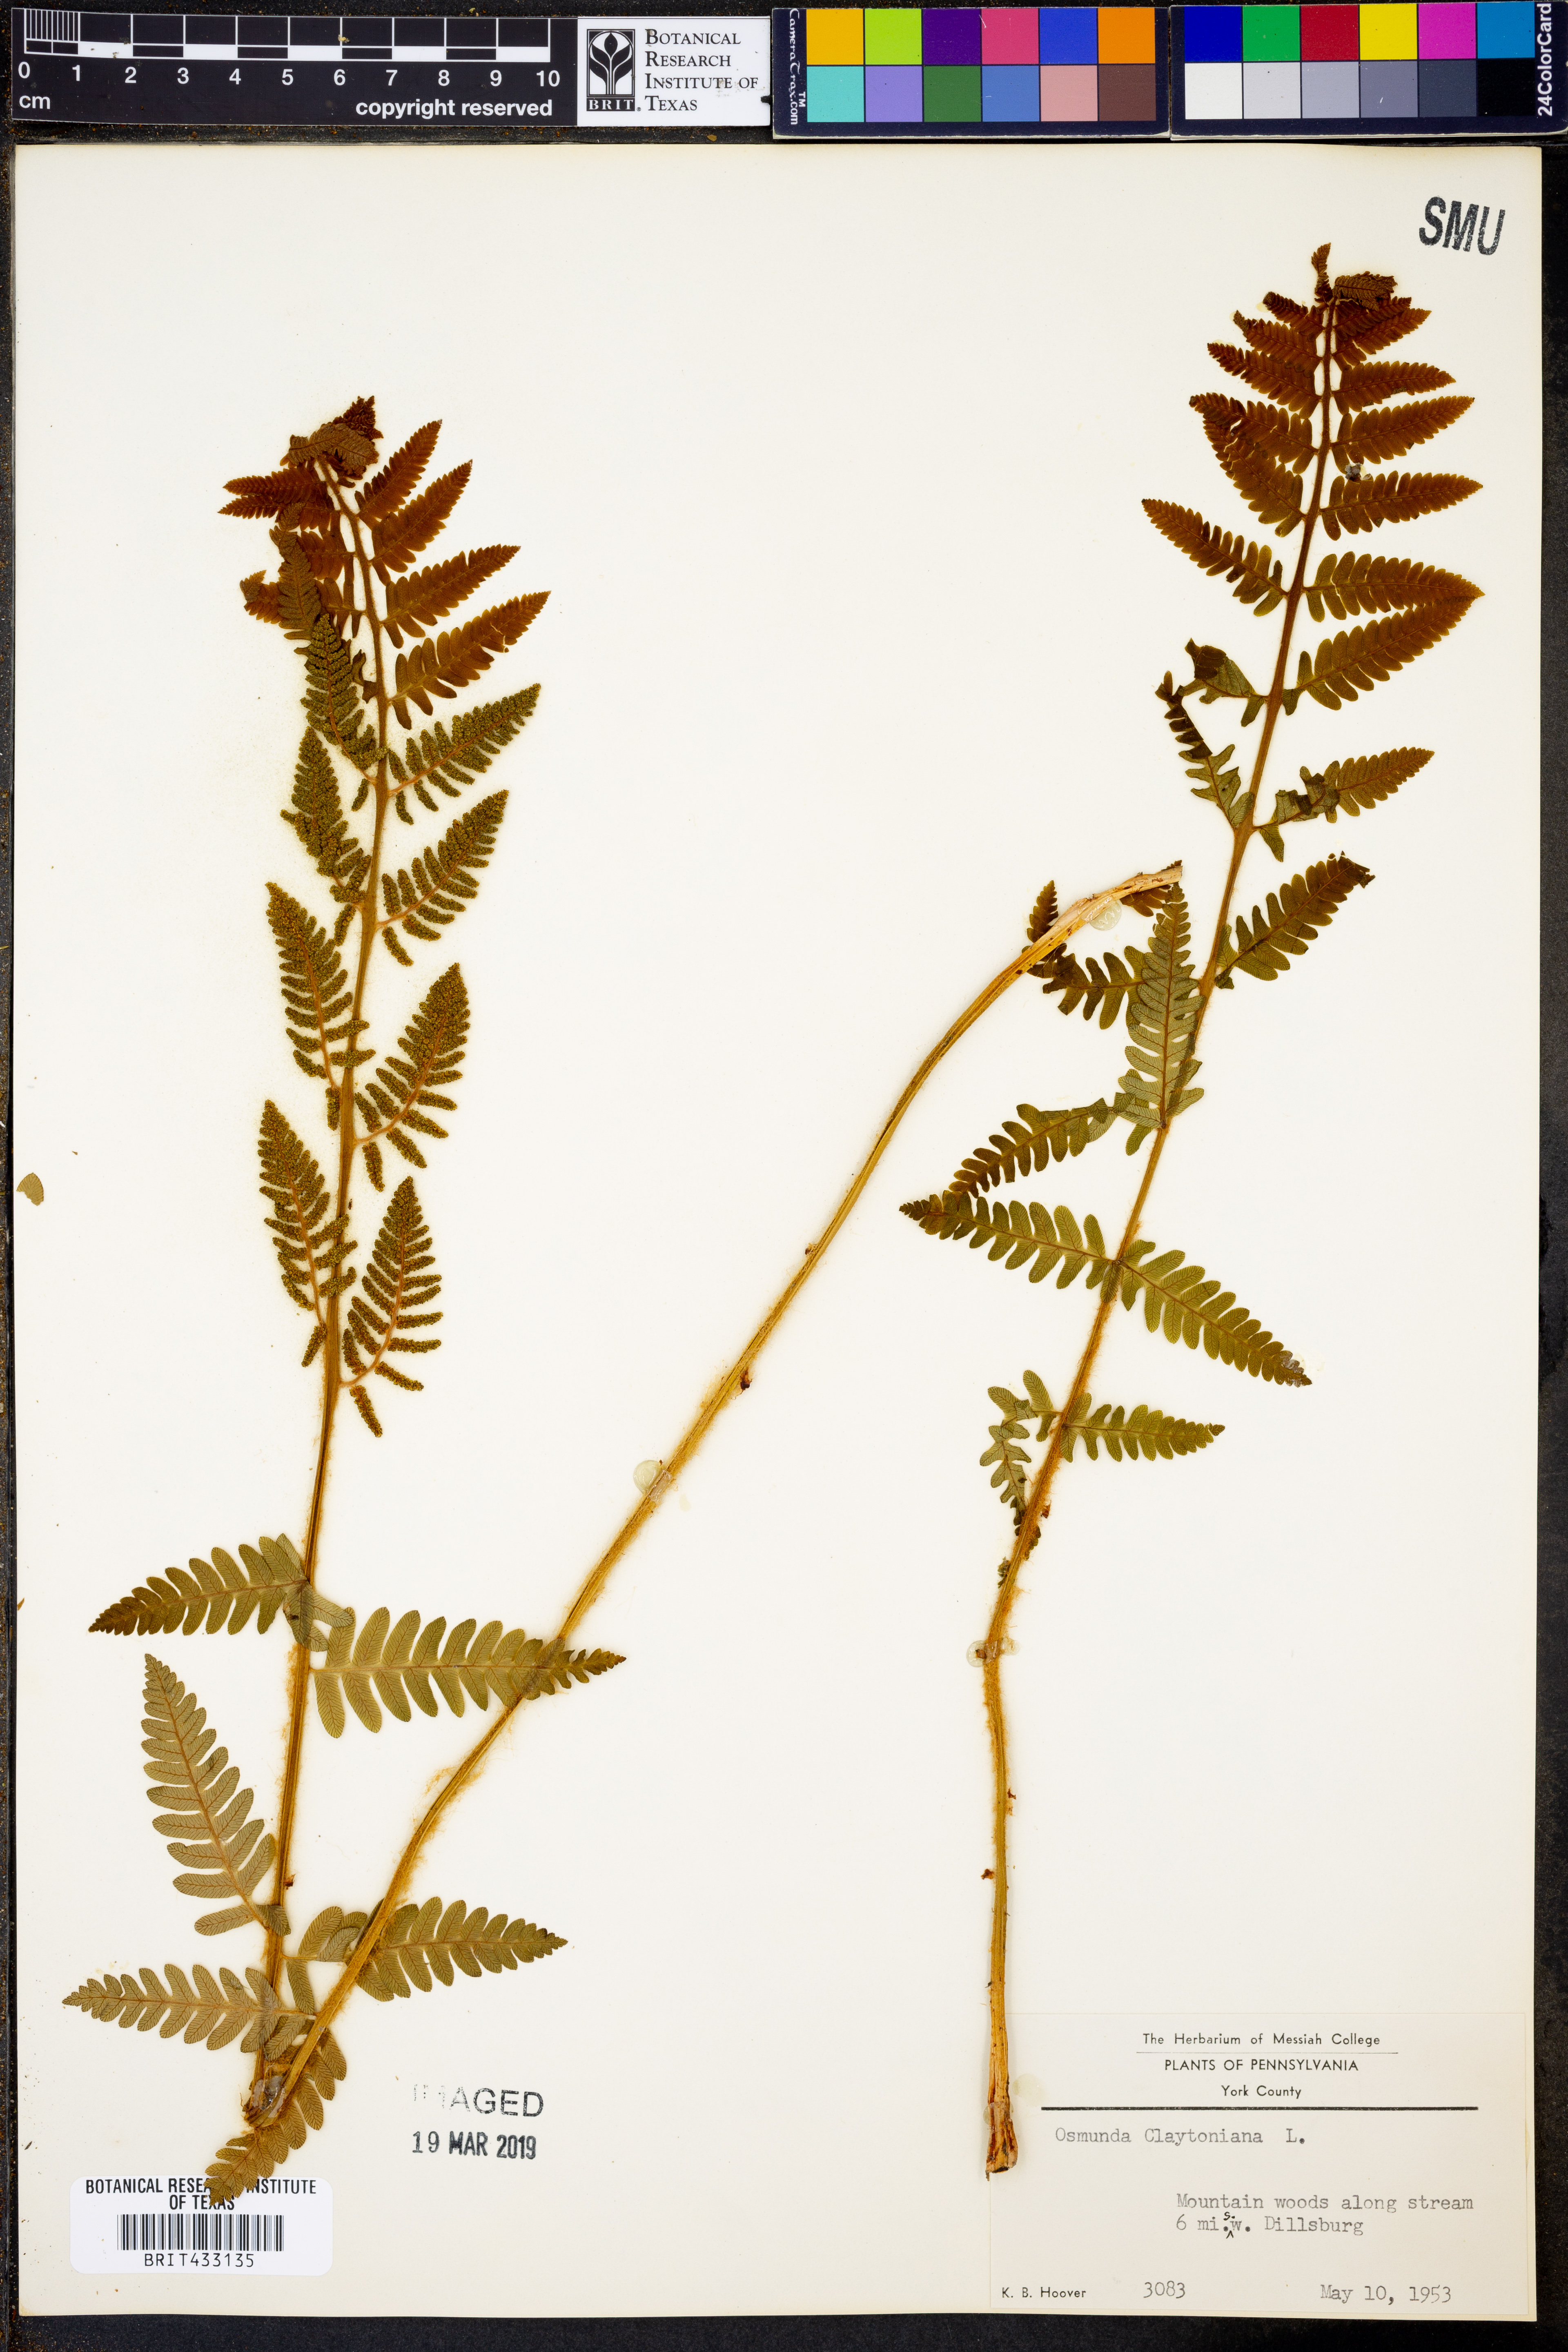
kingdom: Plantae
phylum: Tracheophyta
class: Polypodiopsida
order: Osmundales
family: Osmundaceae
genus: Claytosmunda
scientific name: Claytosmunda claytoniana
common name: Clayton's fern
